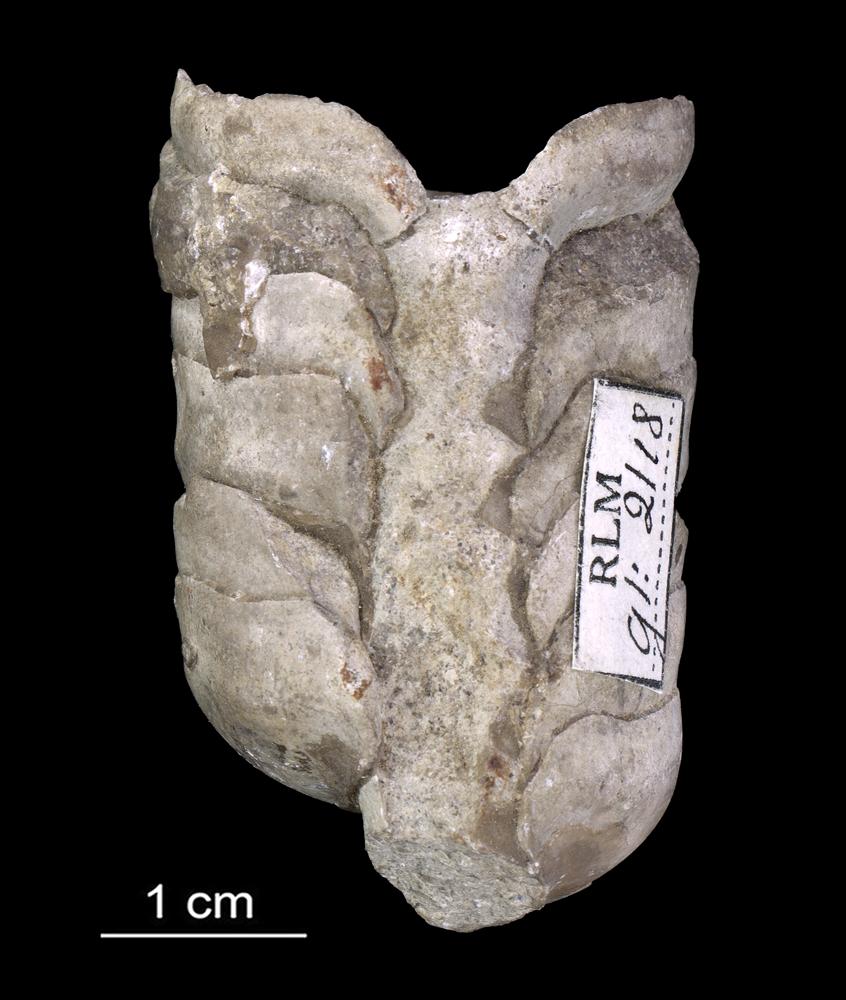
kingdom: Animalia
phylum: Mollusca
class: Cephalopoda
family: Endoceratidae
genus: Proterovaginoceras
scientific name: Proterovaginoceras Endoceras incognitum
